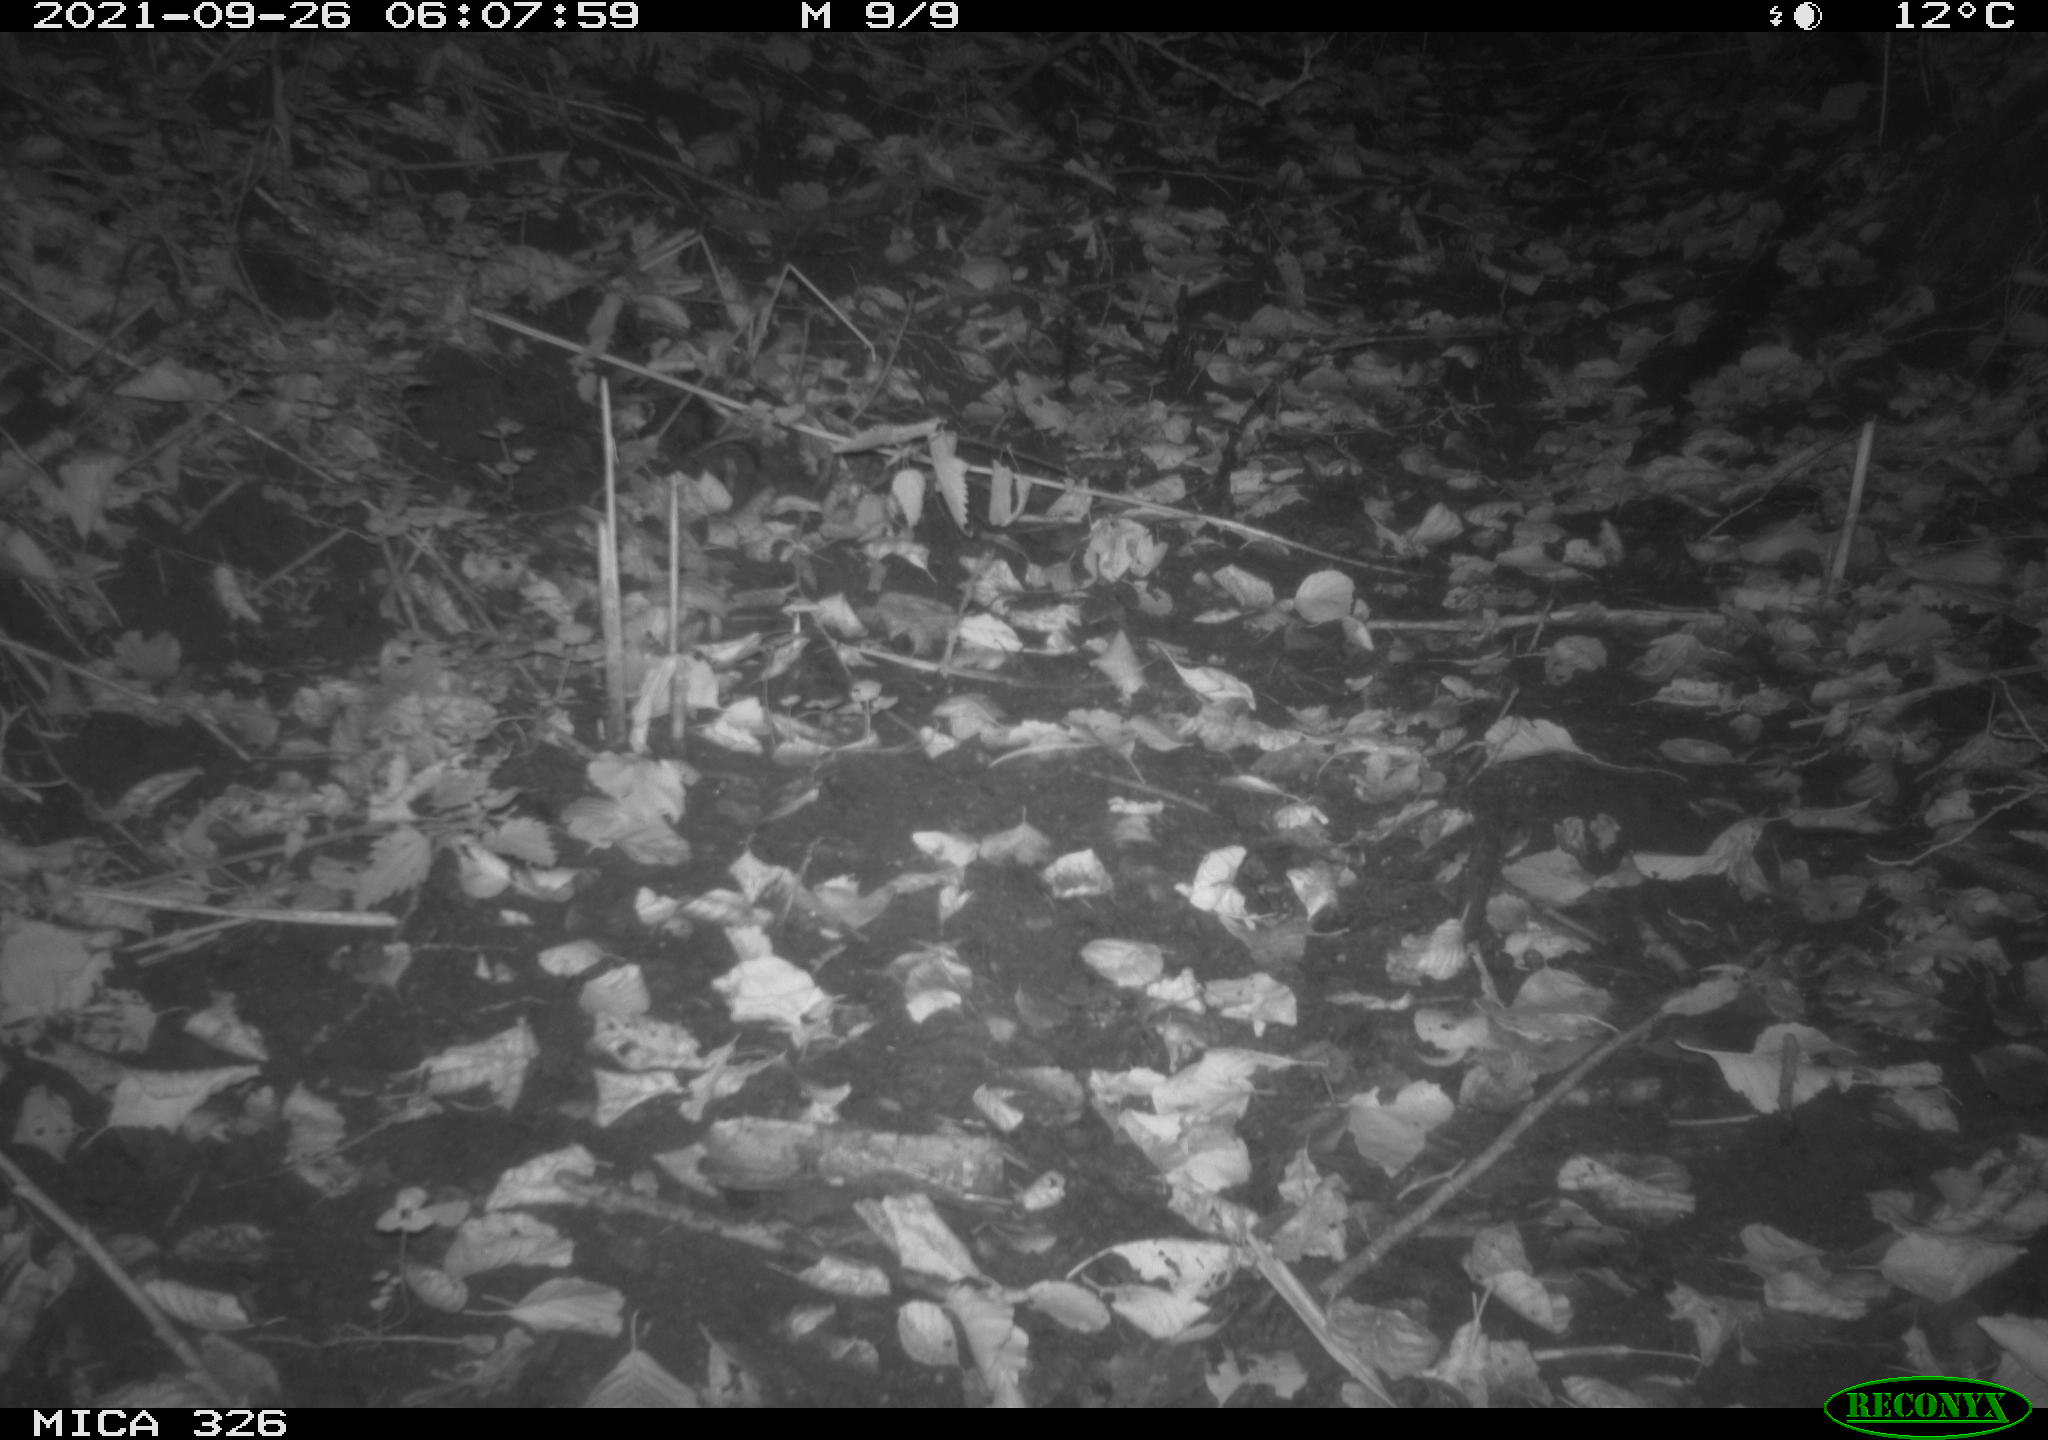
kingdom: Animalia
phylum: Chordata
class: Mammalia
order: Rodentia
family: Muridae
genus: Rattus
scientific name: Rattus norvegicus
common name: Brown rat
